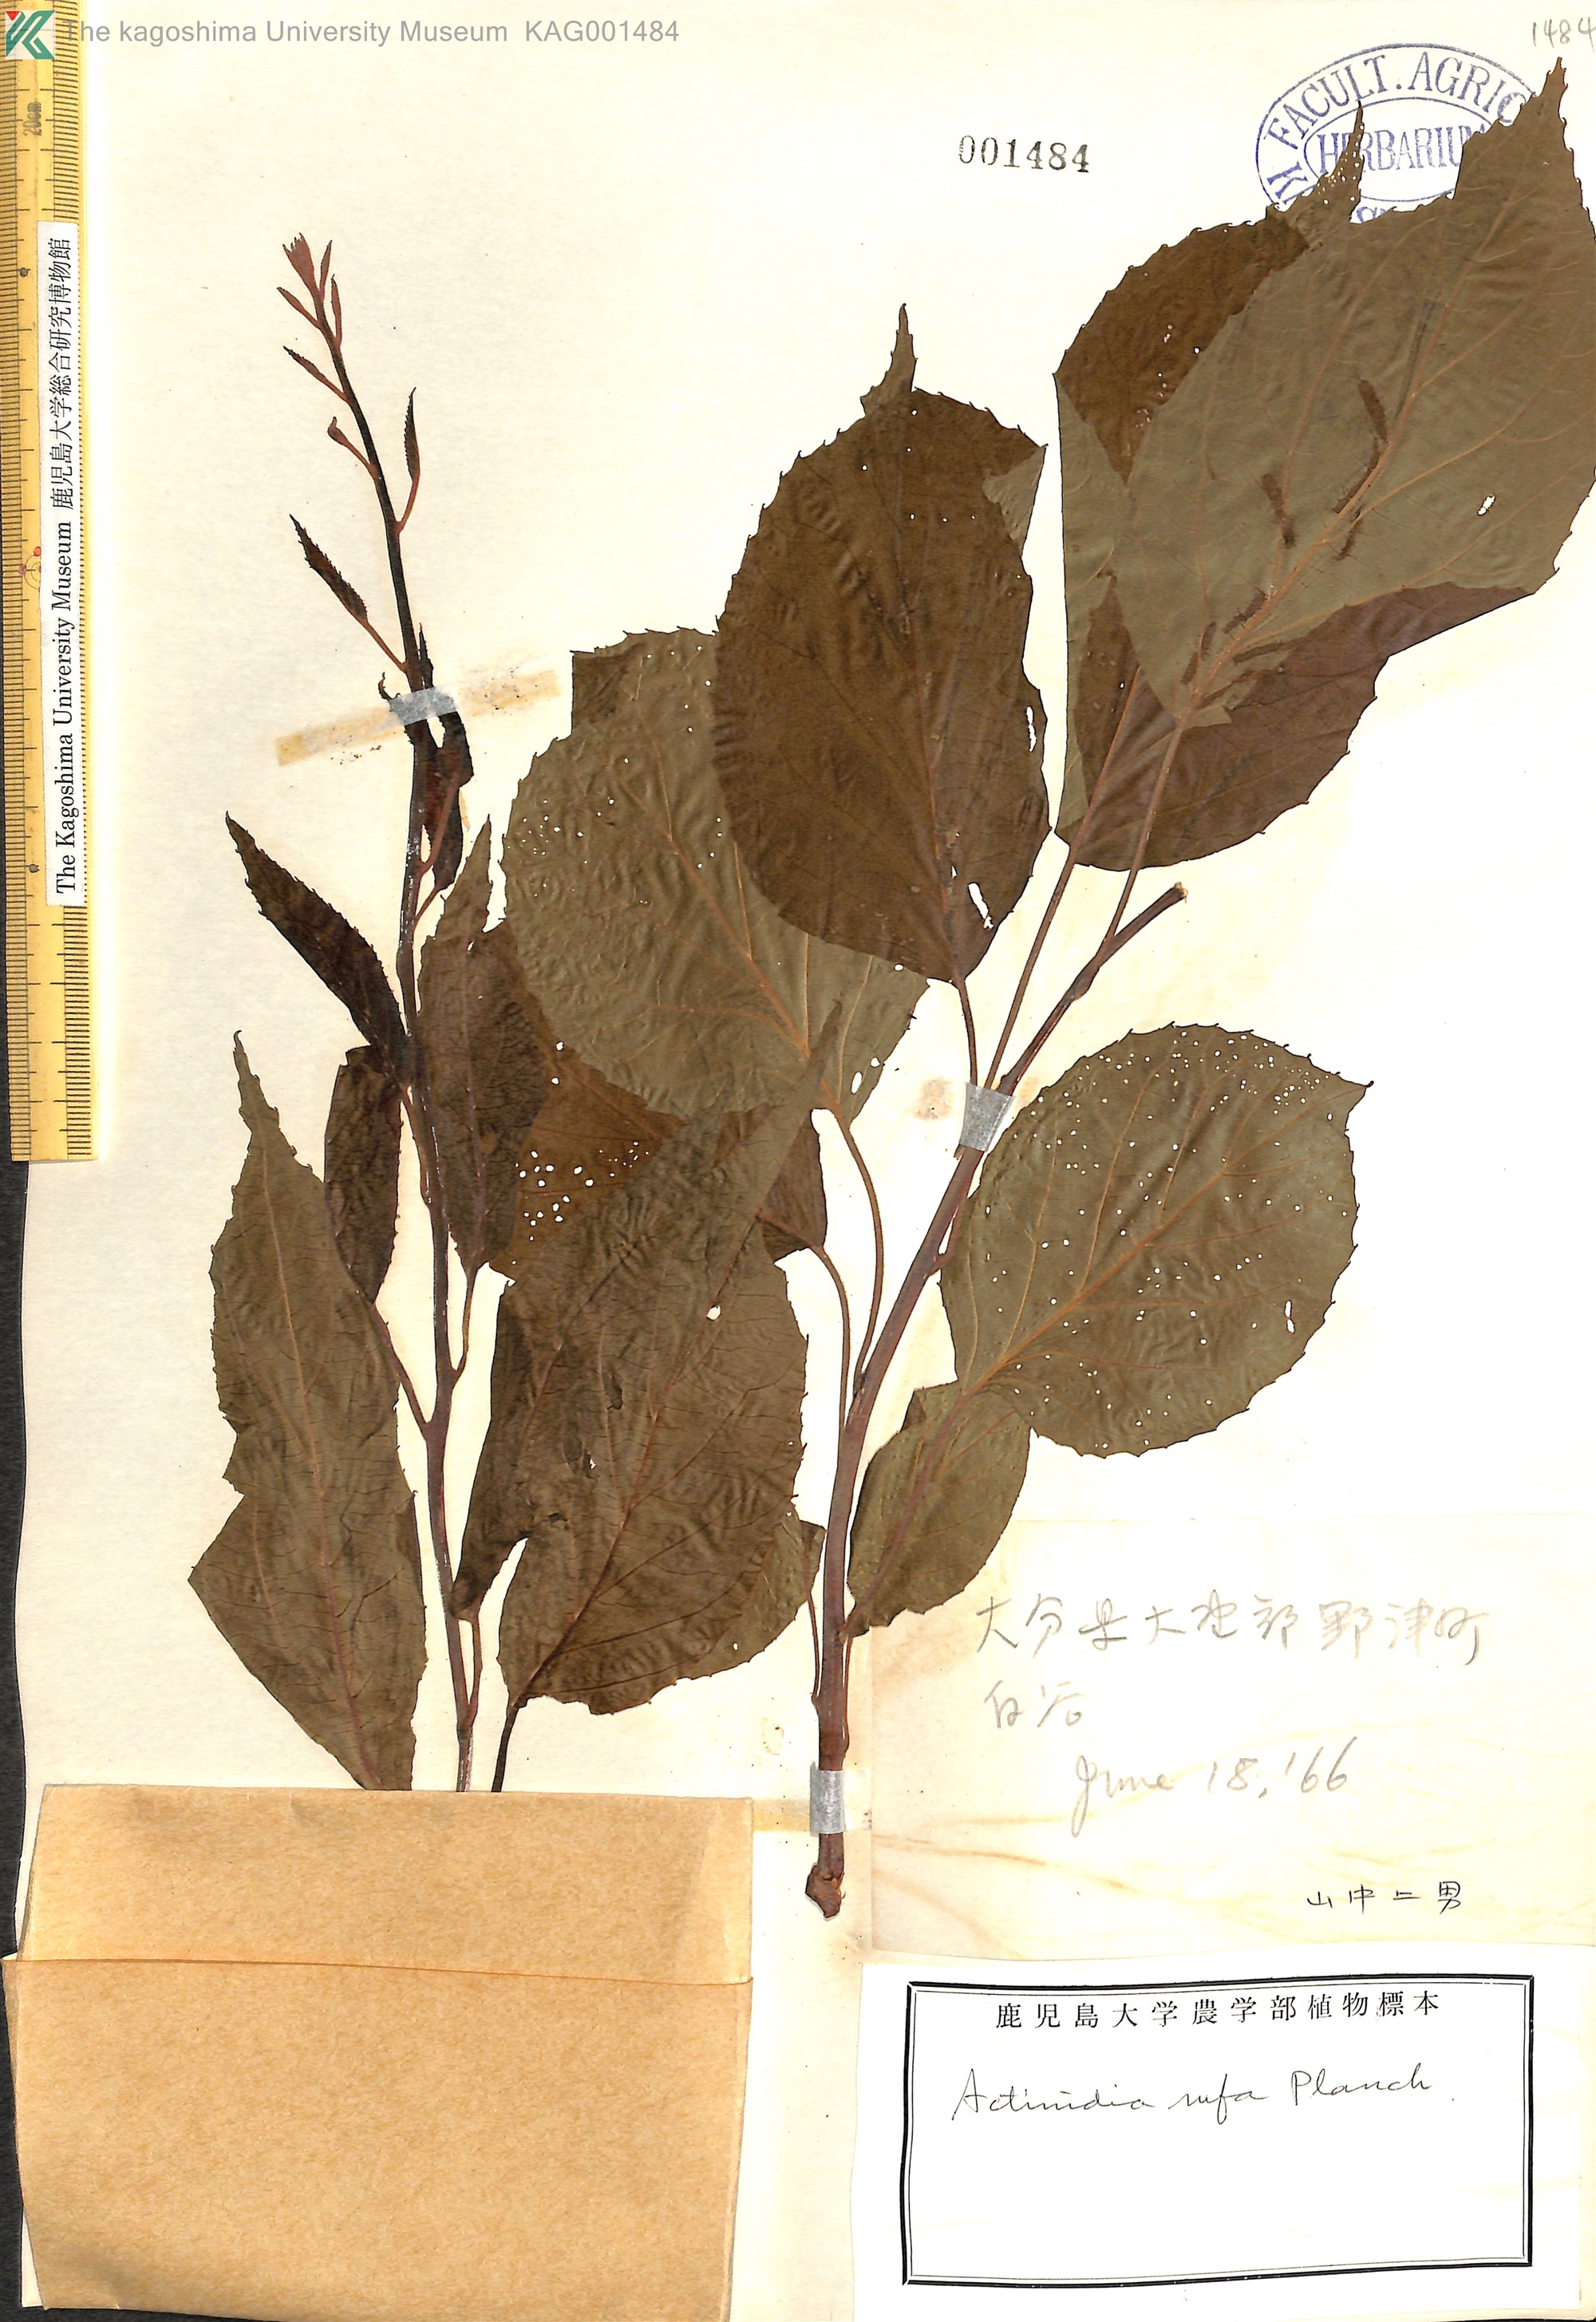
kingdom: Plantae
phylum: Tracheophyta
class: Magnoliopsida
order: Ericales
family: Actinidiaceae
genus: Actinidia
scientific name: Actinidia rufa
